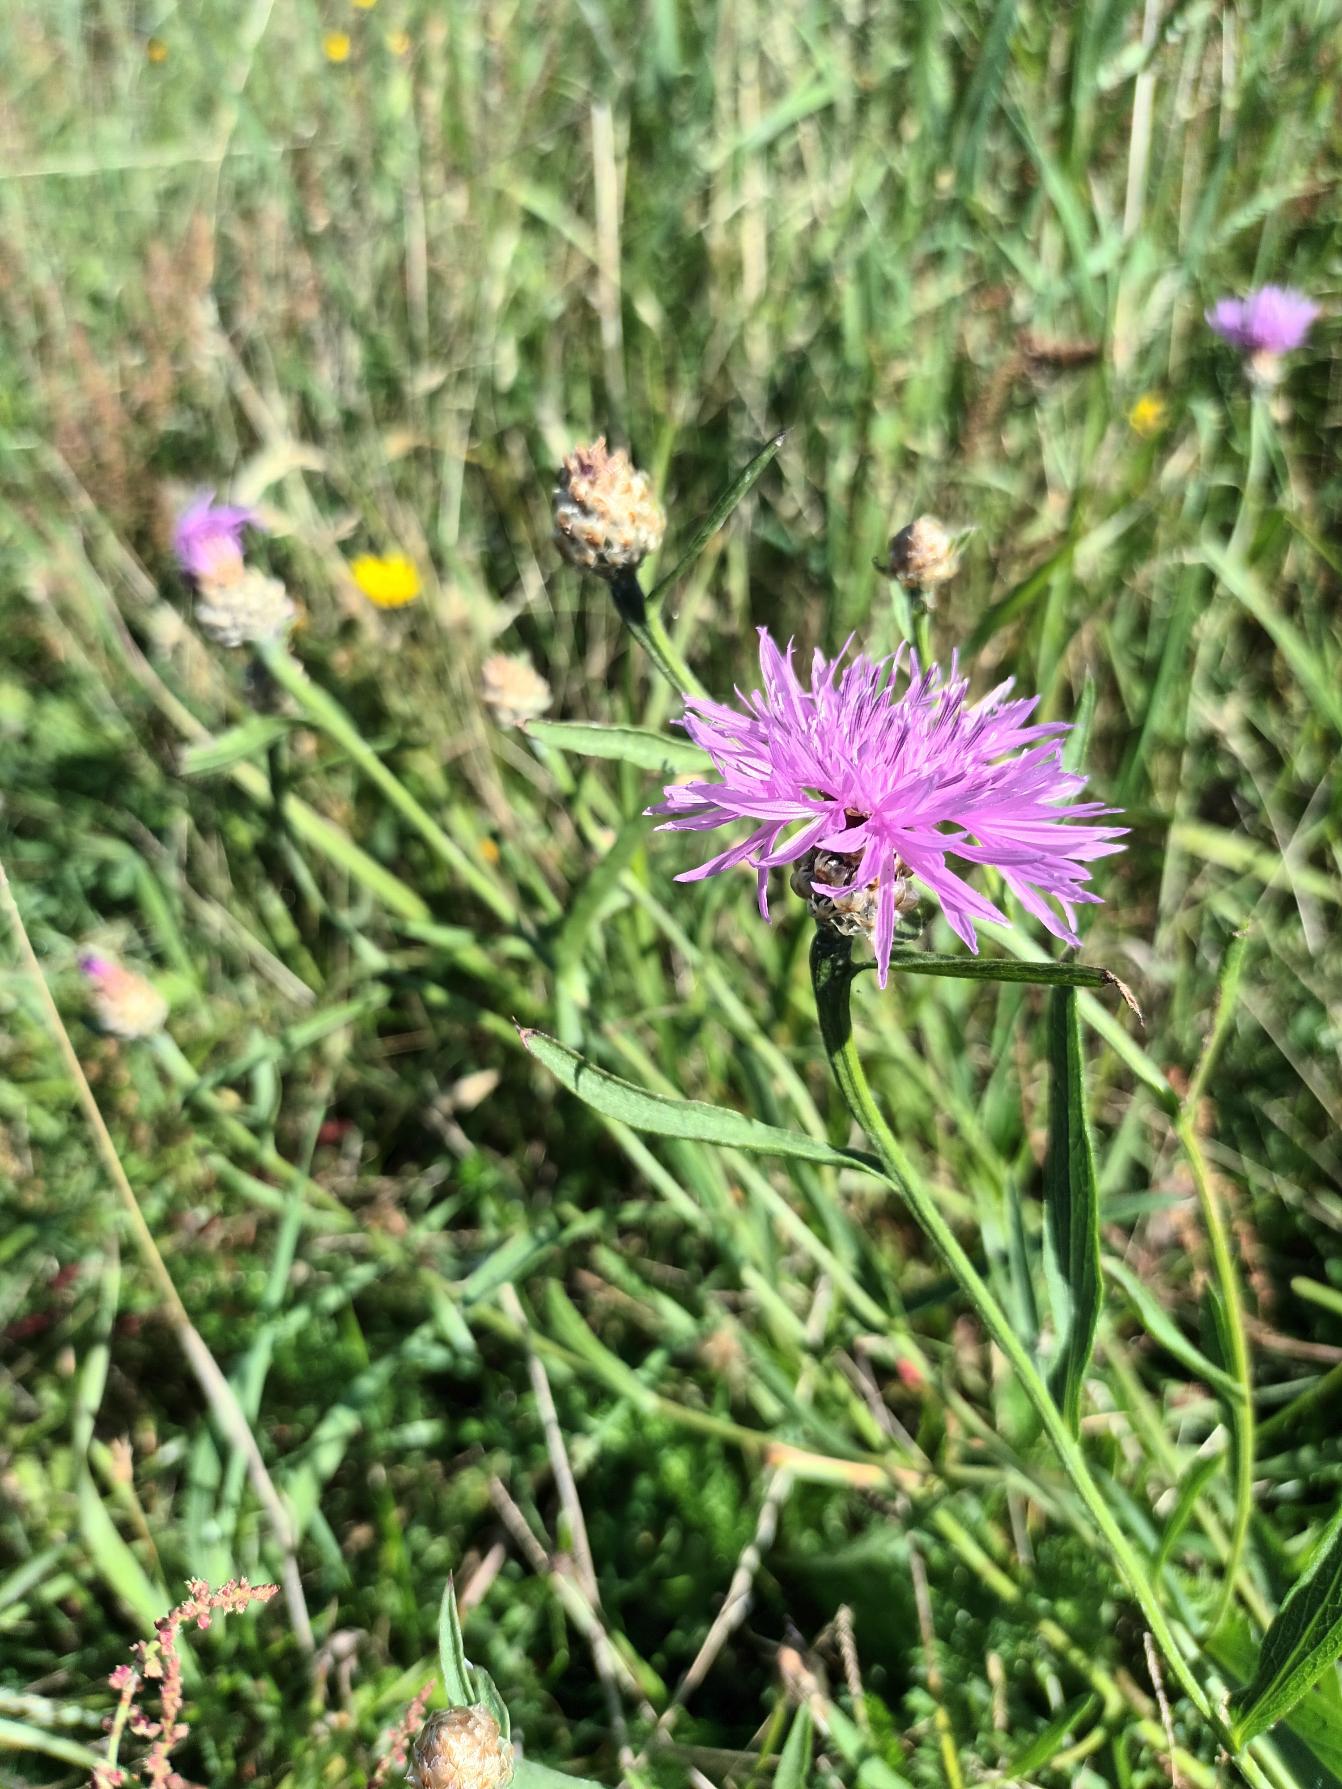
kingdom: Plantae
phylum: Tracheophyta
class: Magnoliopsida
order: Asterales
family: Asteraceae
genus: Centaurea
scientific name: Centaurea jacea
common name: Almindelig knopurt
